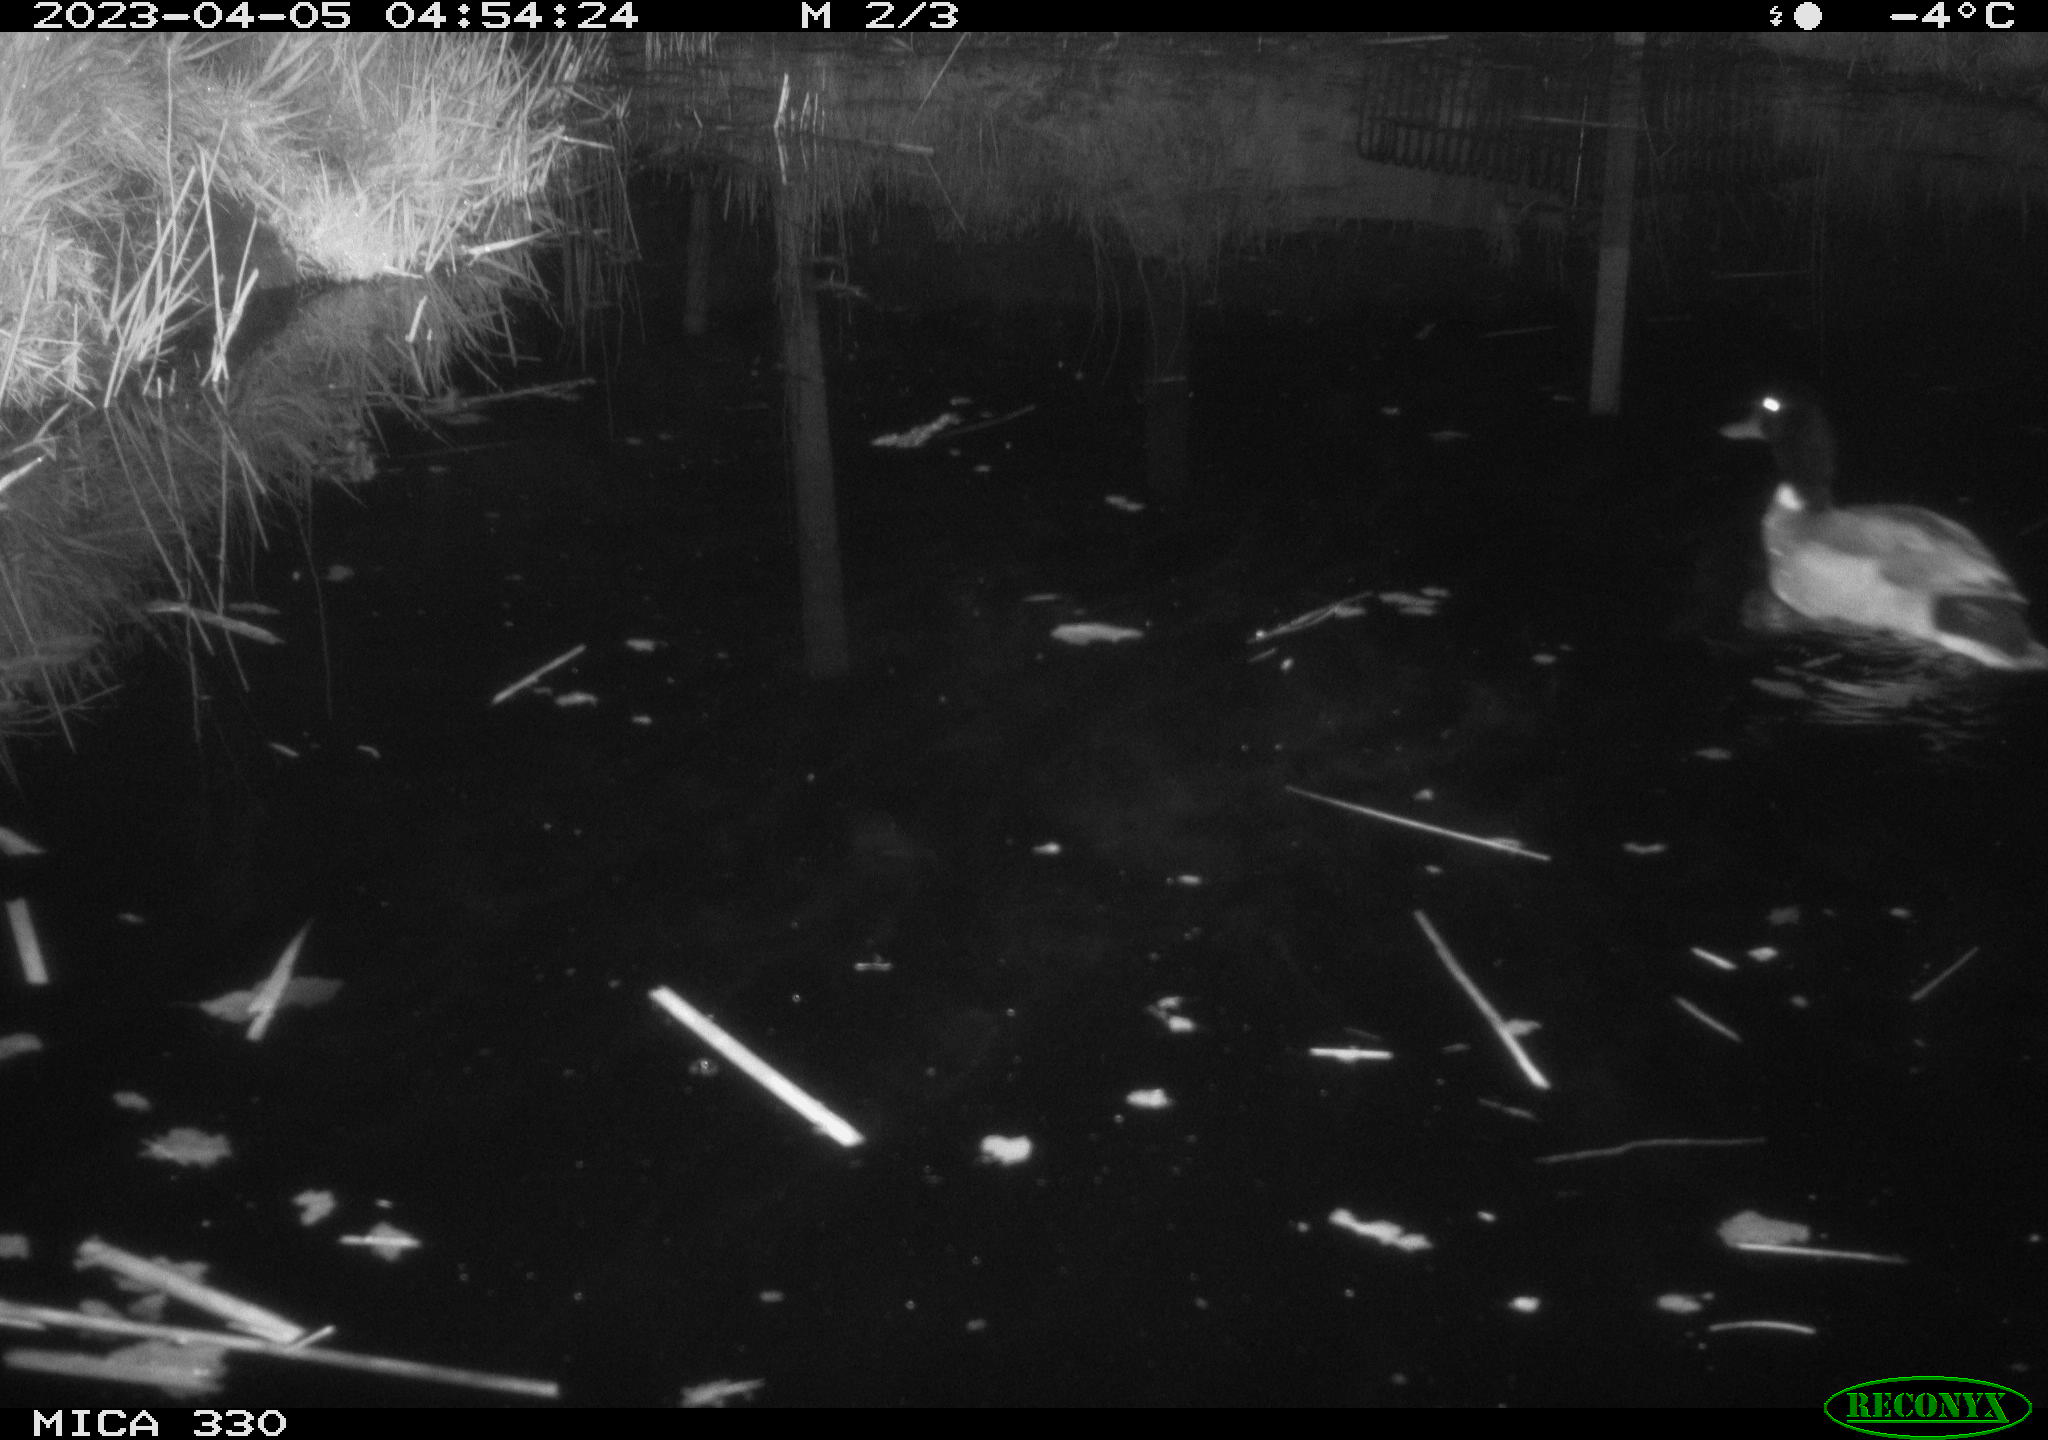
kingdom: Animalia
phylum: Chordata
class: Aves
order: Anseriformes
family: Anatidae
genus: Anas
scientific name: Anas
